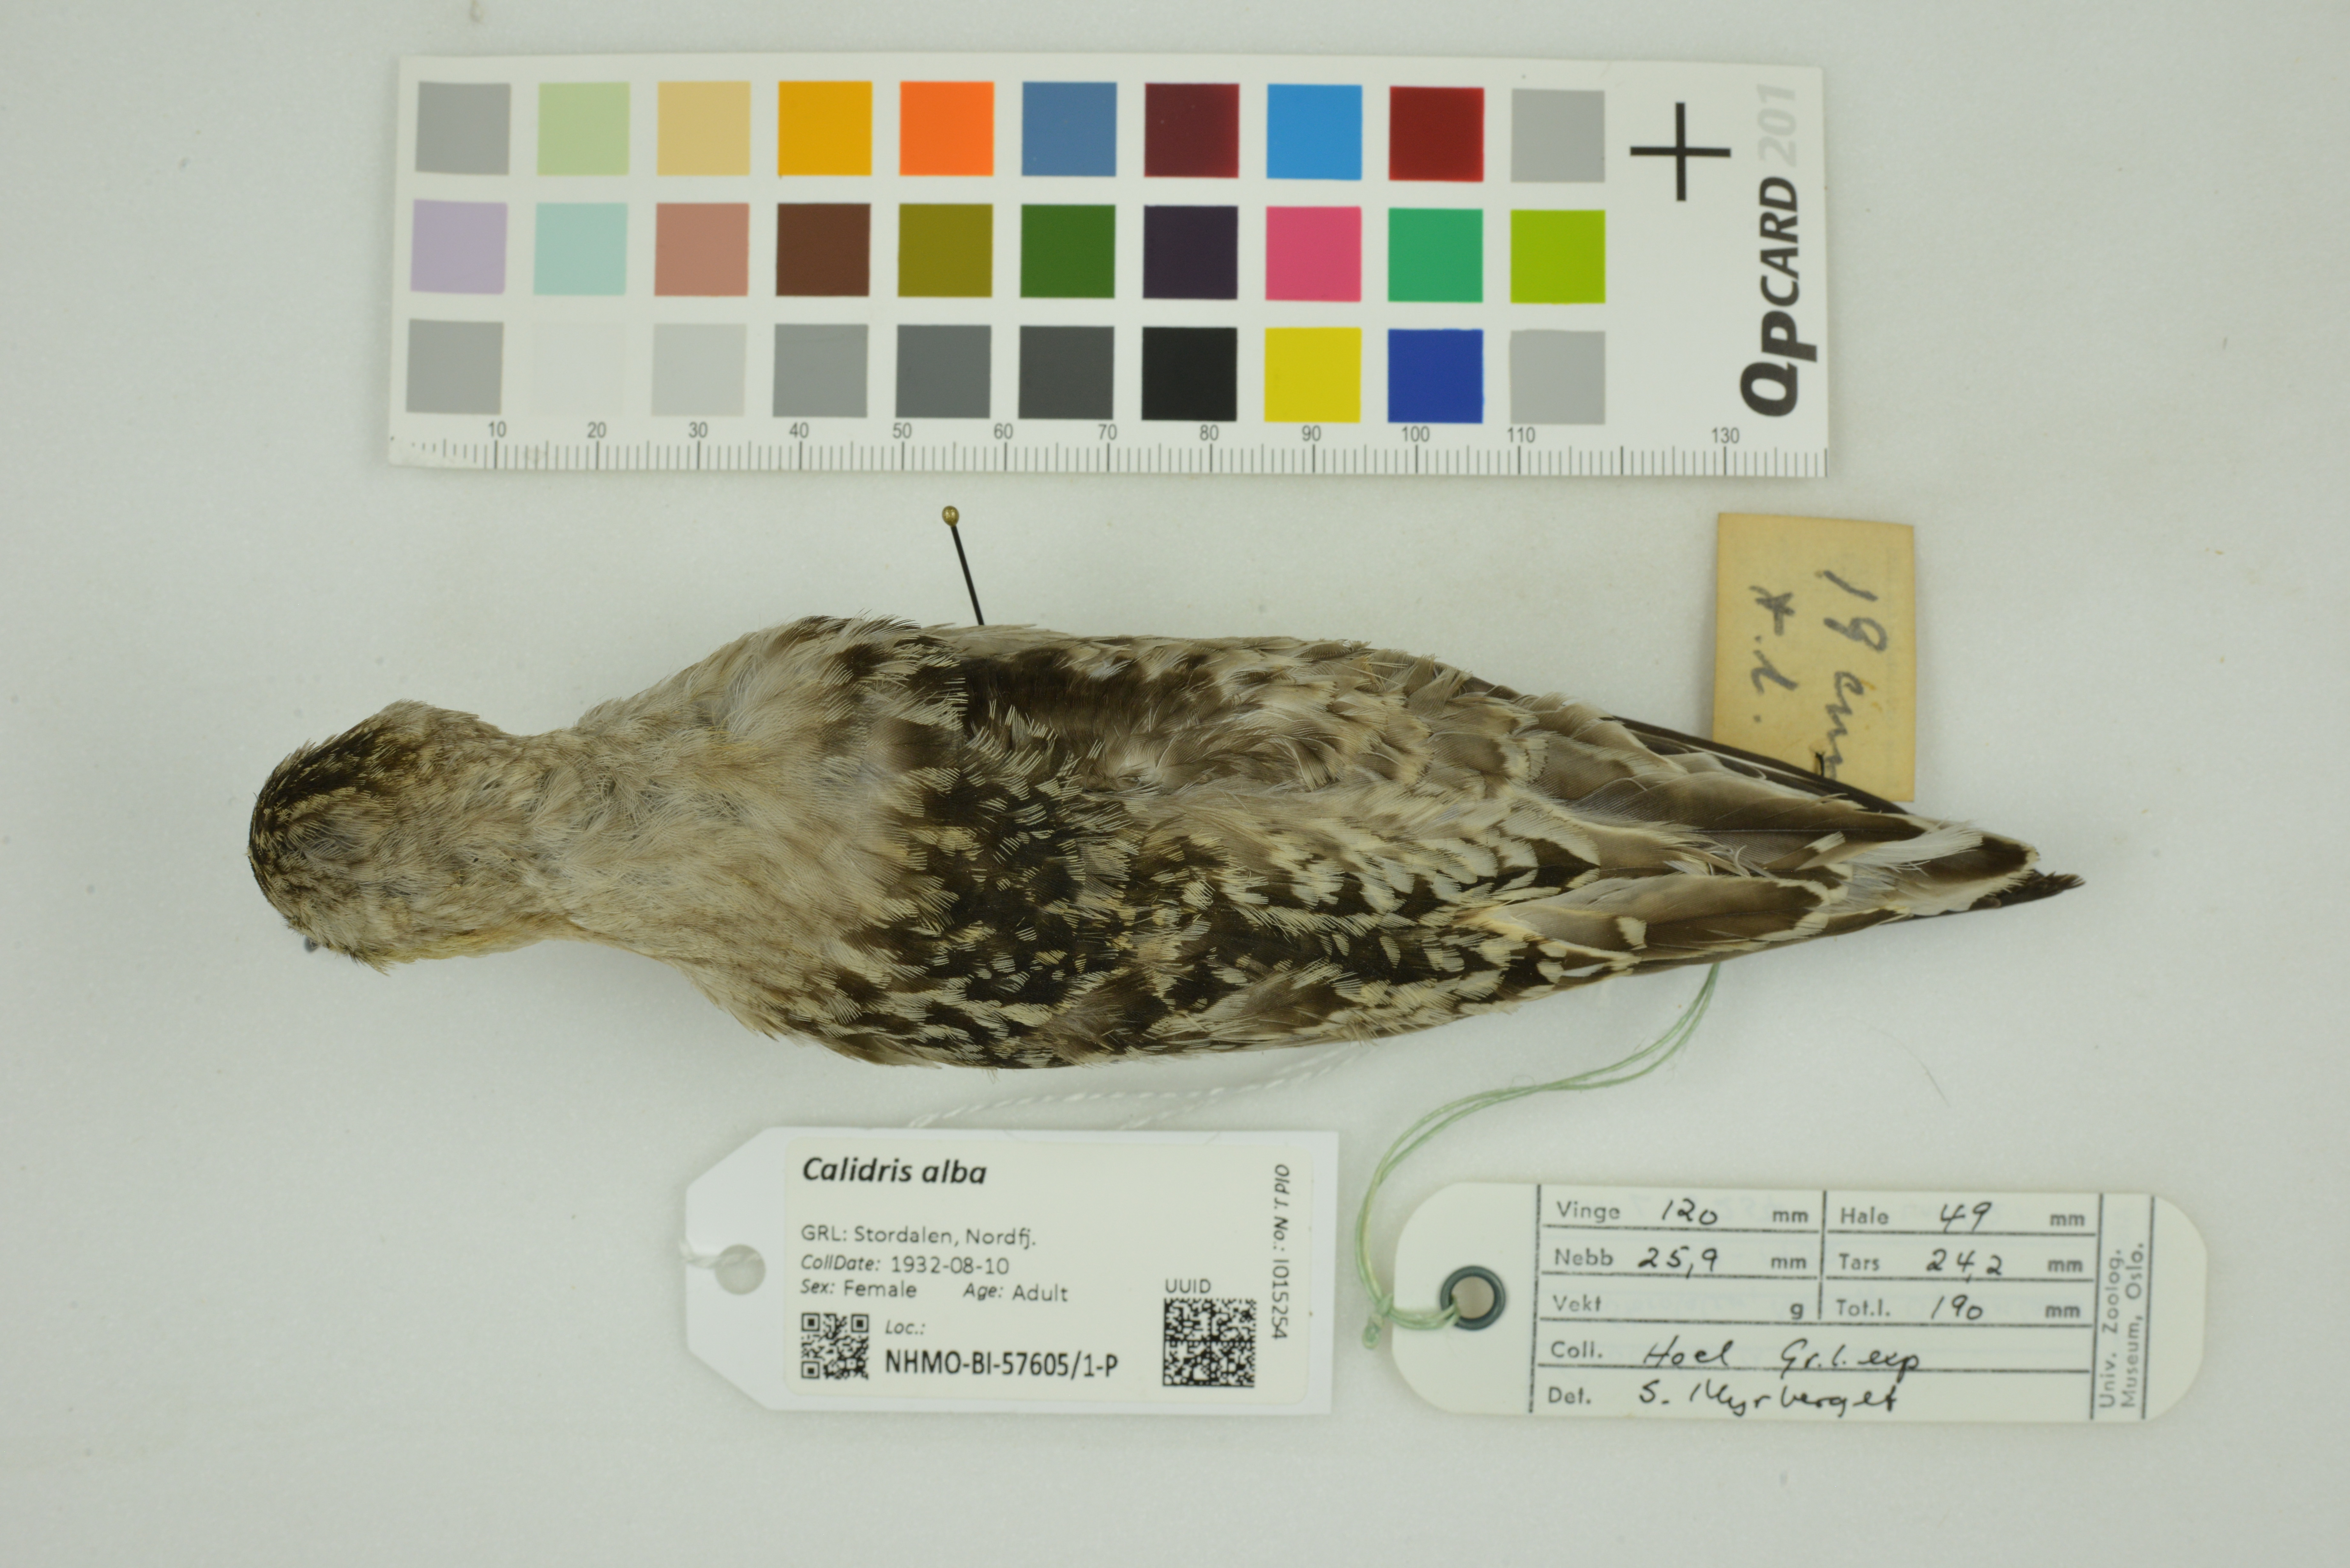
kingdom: Animalia
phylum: Chordata
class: Aves
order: Charadriiformes
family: Scolopacidae
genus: Calidris
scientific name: Calidris alba
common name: Sanderling
